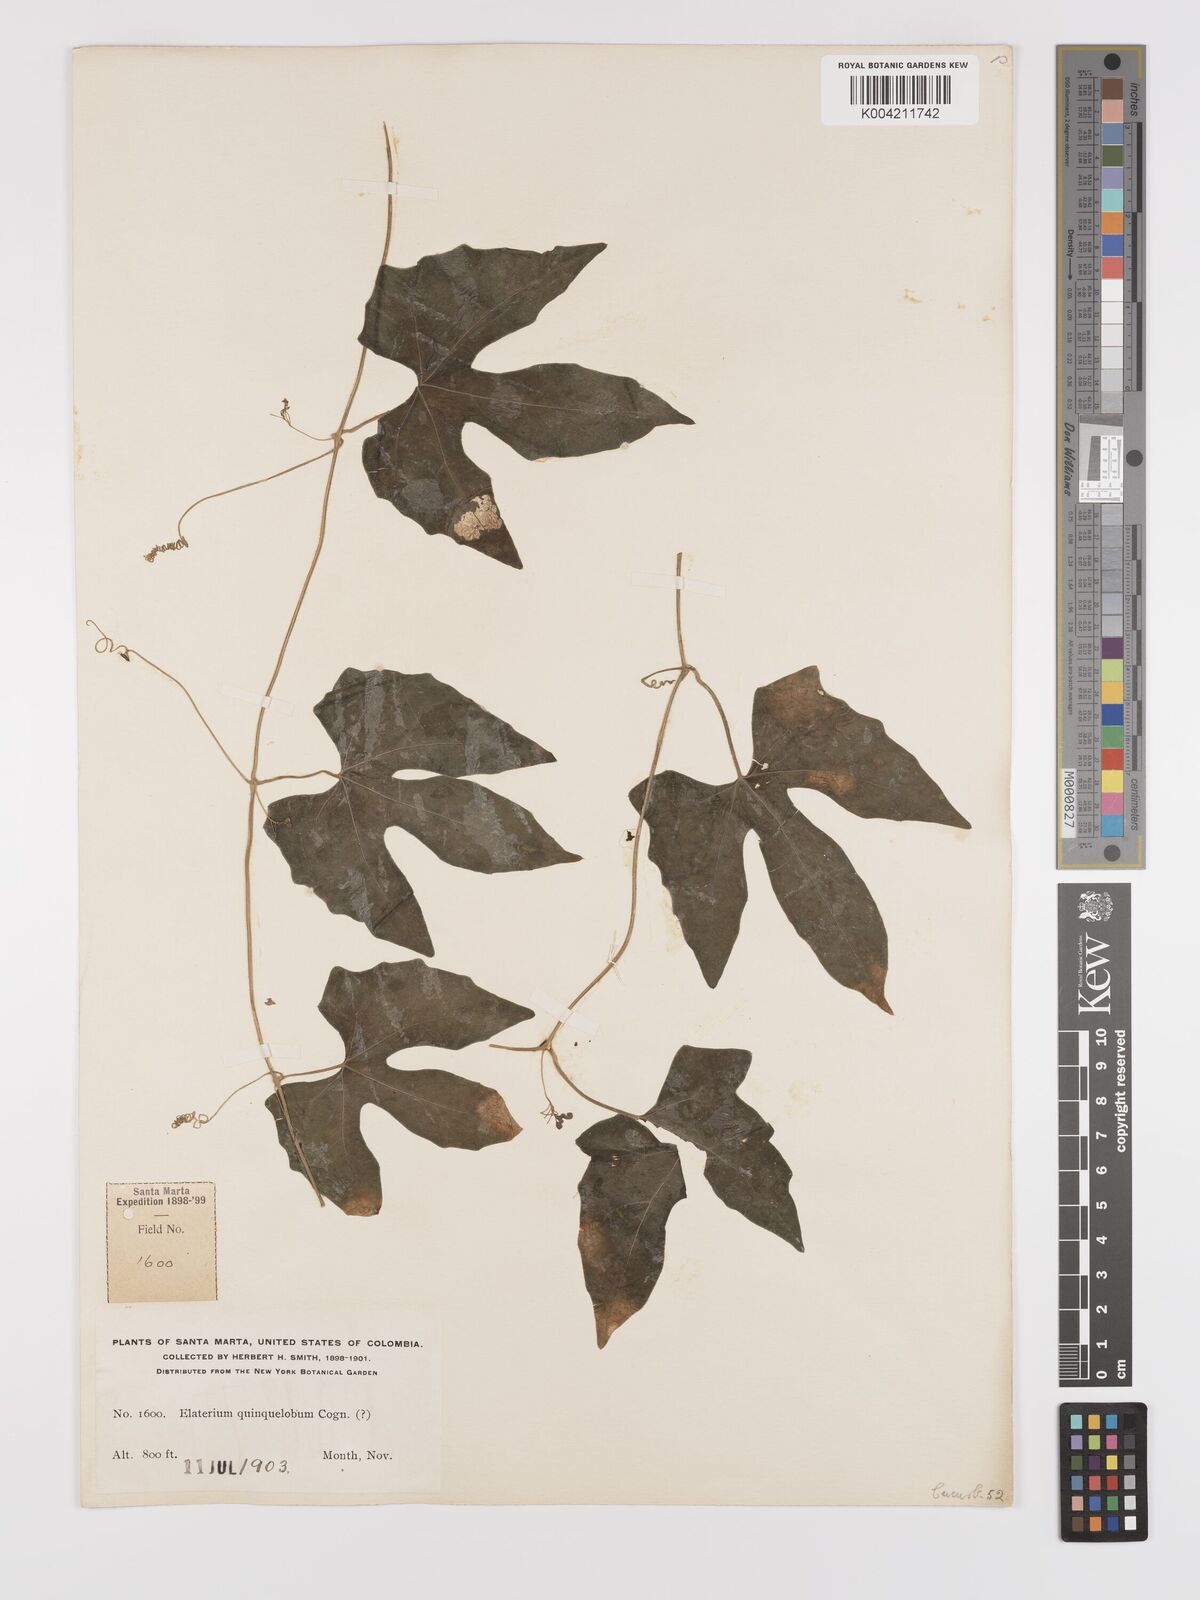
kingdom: Plantae
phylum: Tracheophyta
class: Magnoliopsida
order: Cucurbitales
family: Cucurbitaceae
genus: Melothria
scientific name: Melothria trilobata
